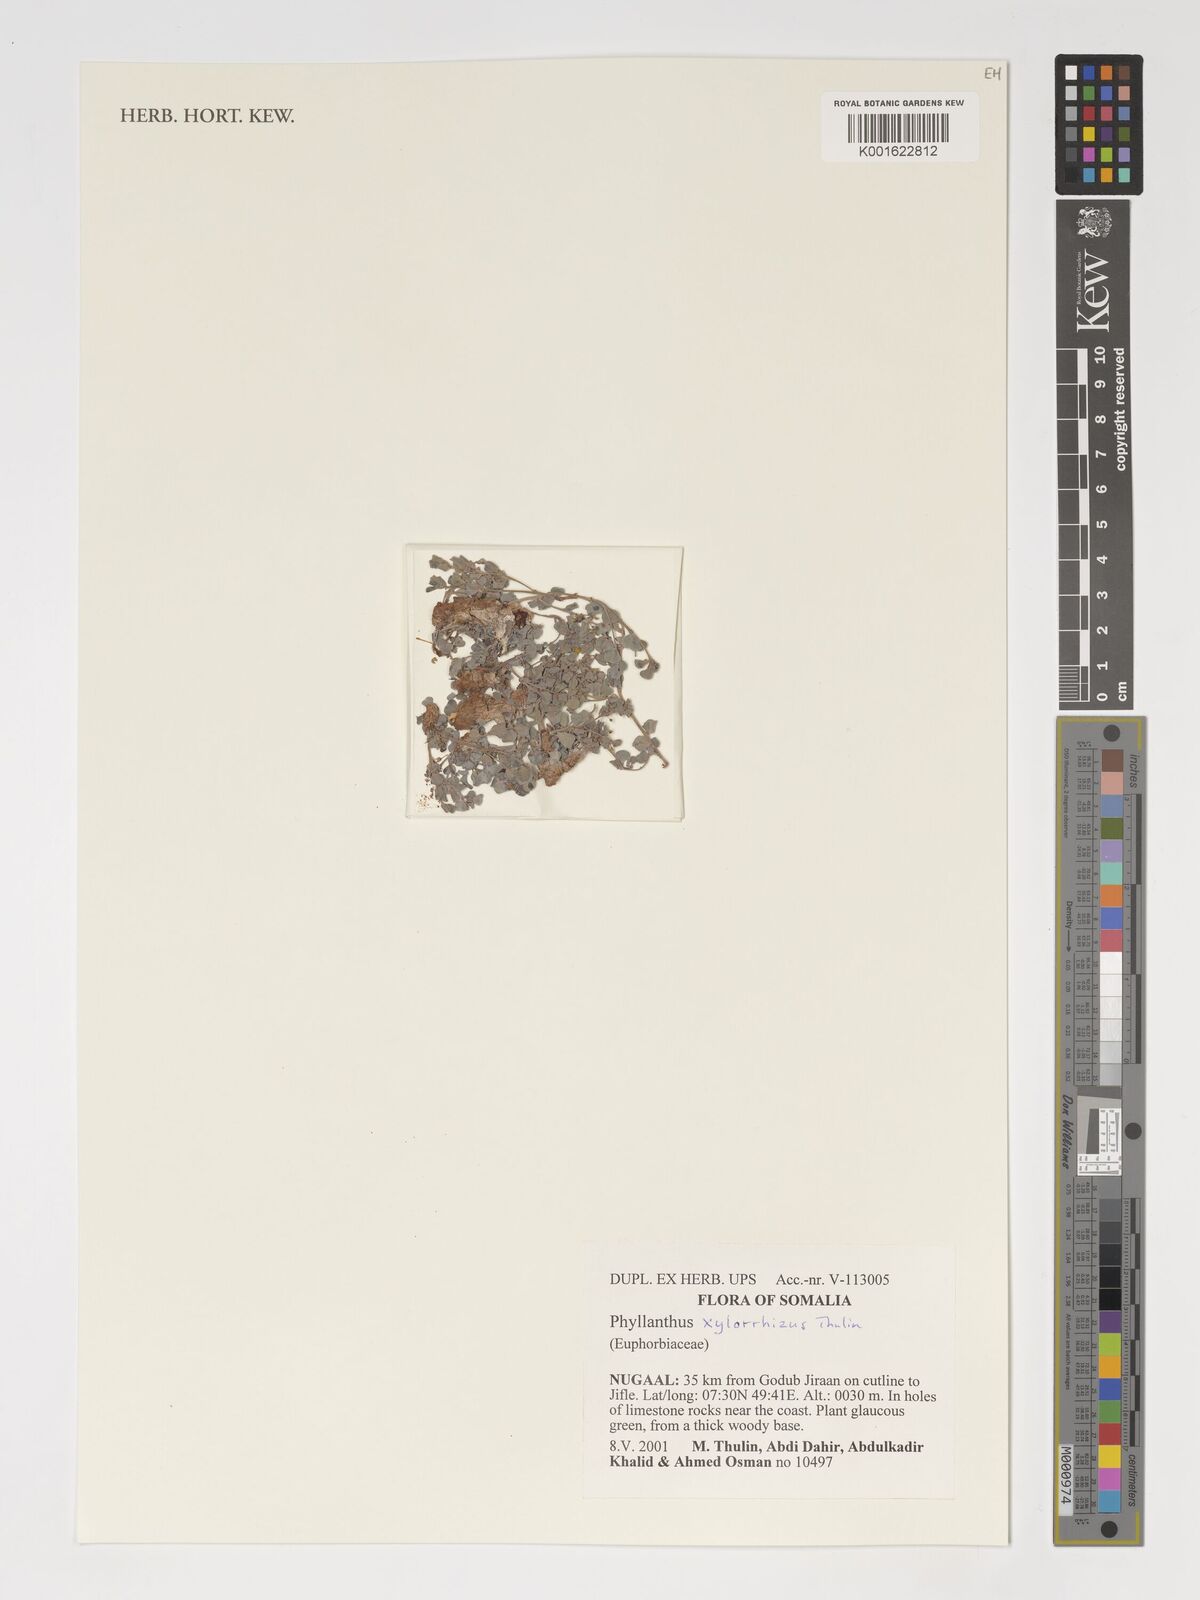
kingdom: Plantae
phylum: Tracheophyta
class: Magnoliopsida
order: Malpighiales
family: Phyllanthaceae
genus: Phyllanthus
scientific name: Phyllanthus xylorrhizus
